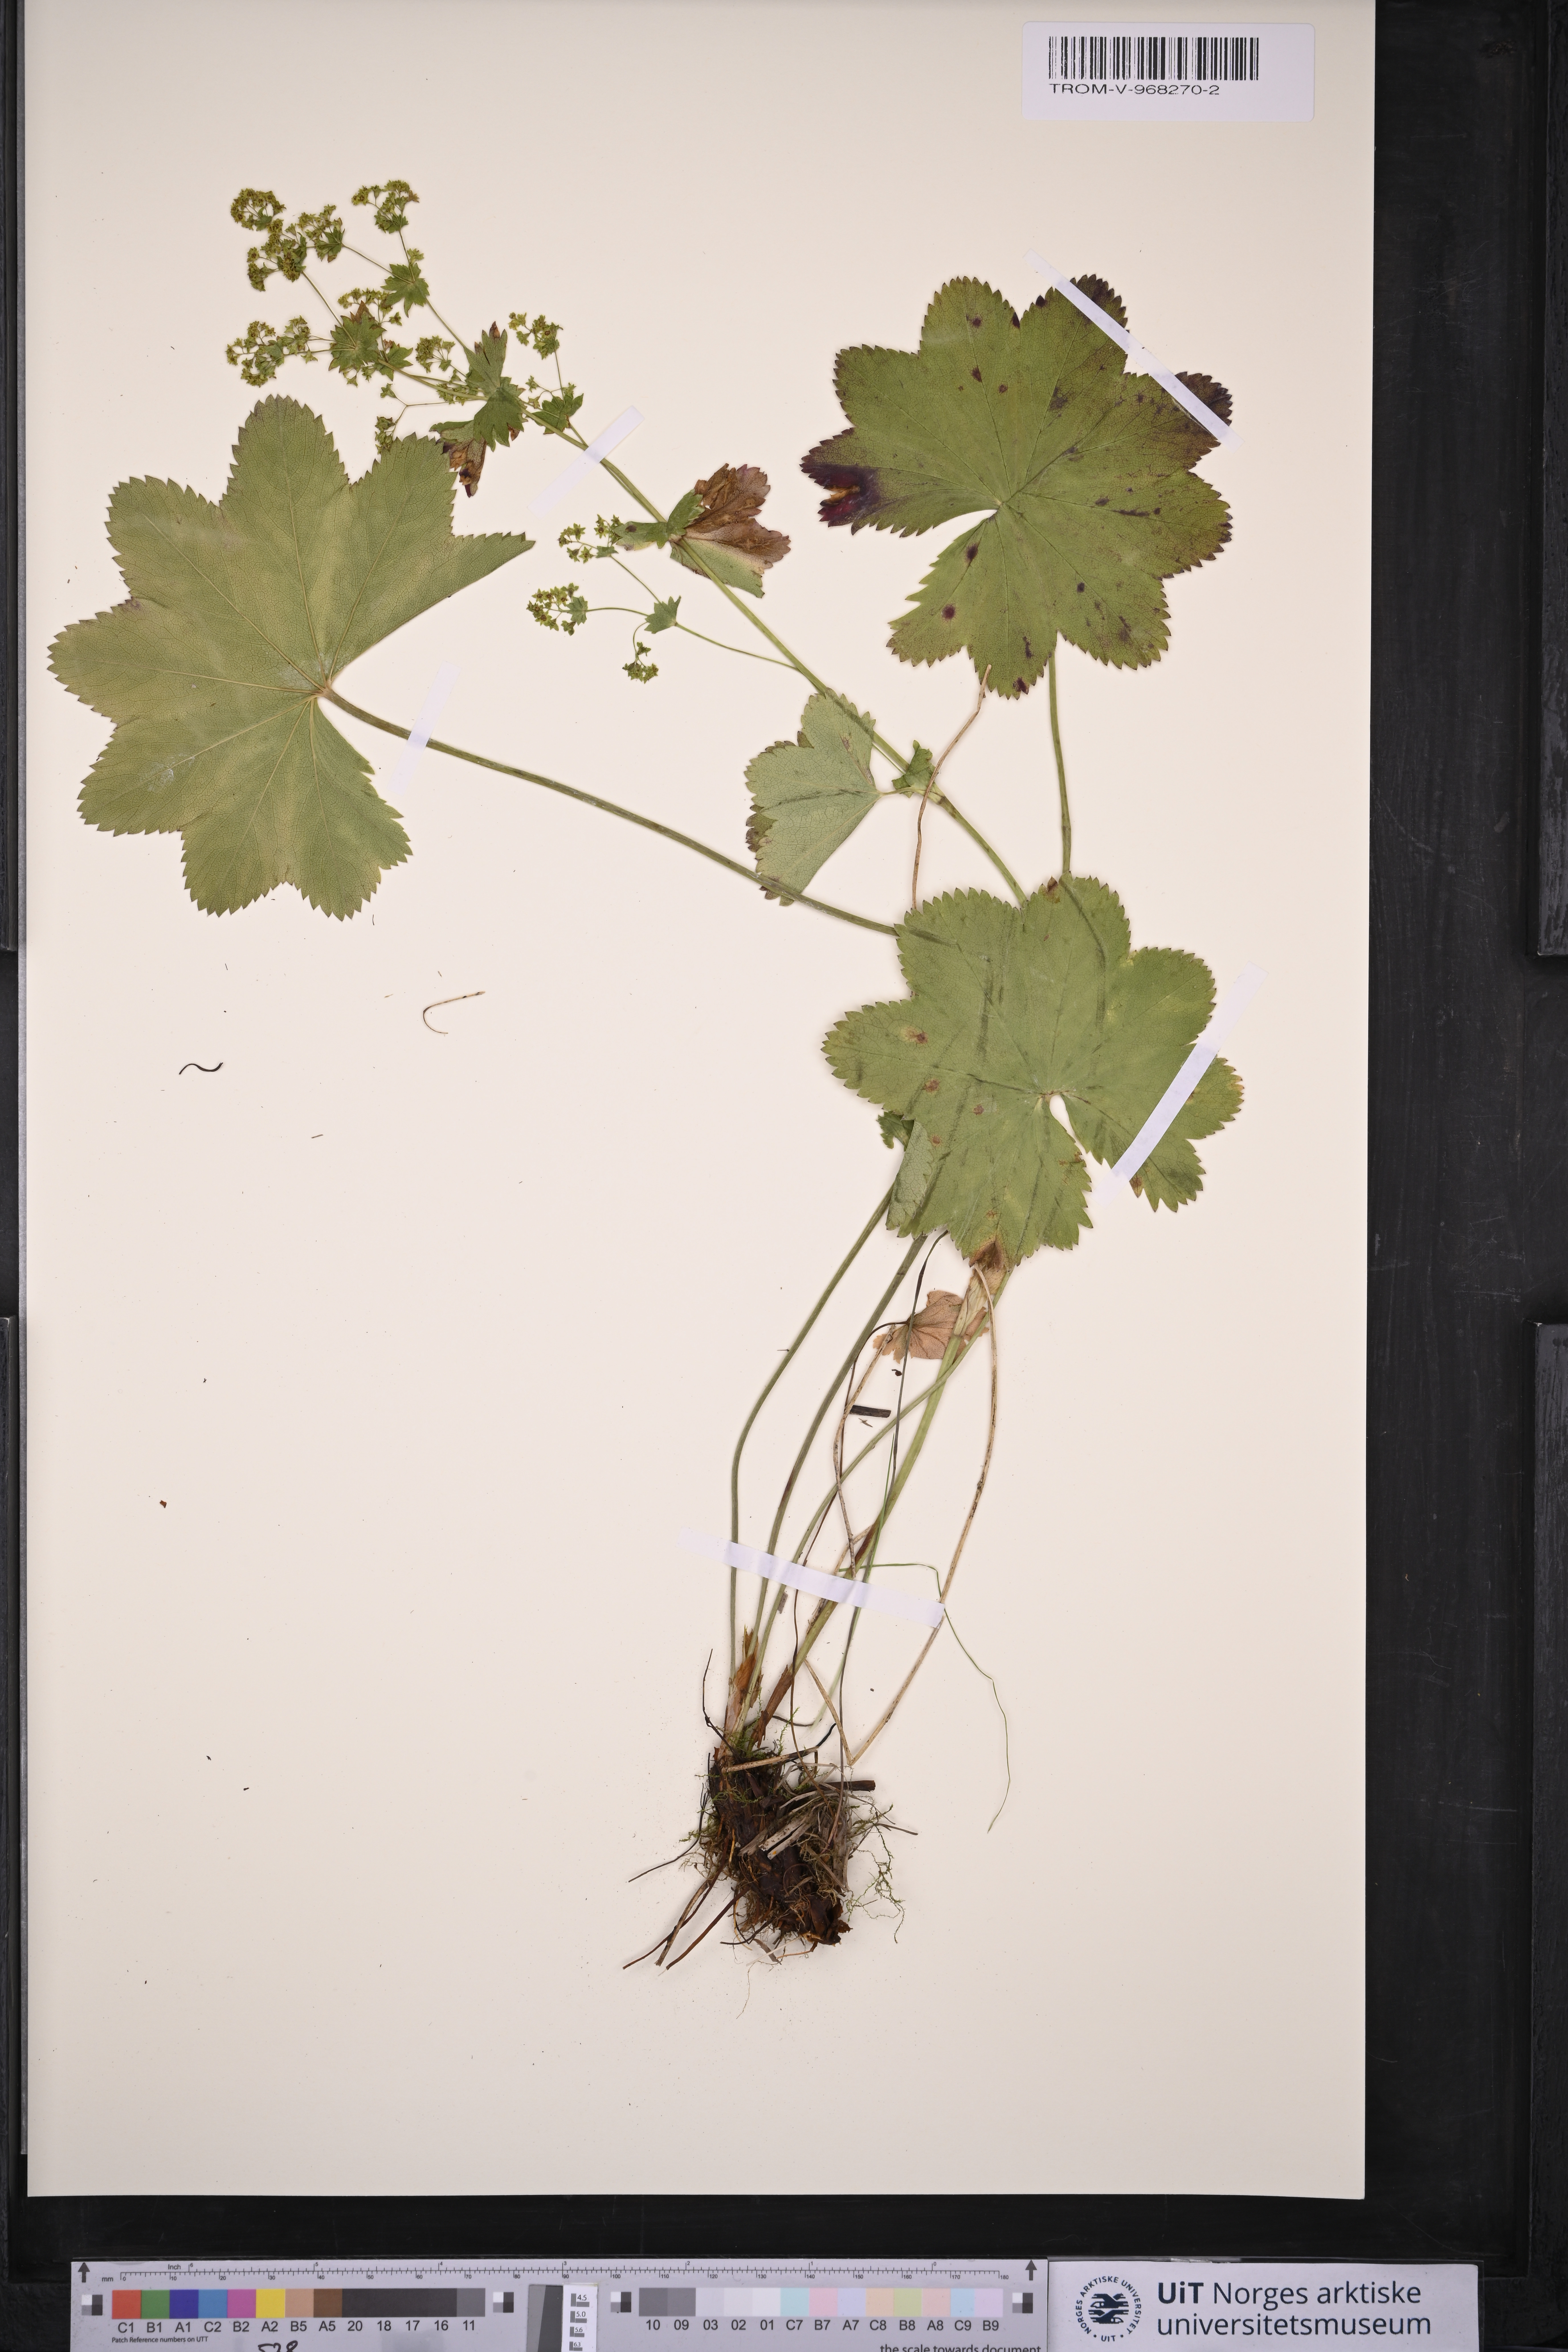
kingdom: Plantae
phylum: Tracheophyta
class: Magnoliopsida
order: Rosales
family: Rosaceae
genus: Alchemilla
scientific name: Alchemilla subcrenata
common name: Broadtooth lady's mantle
